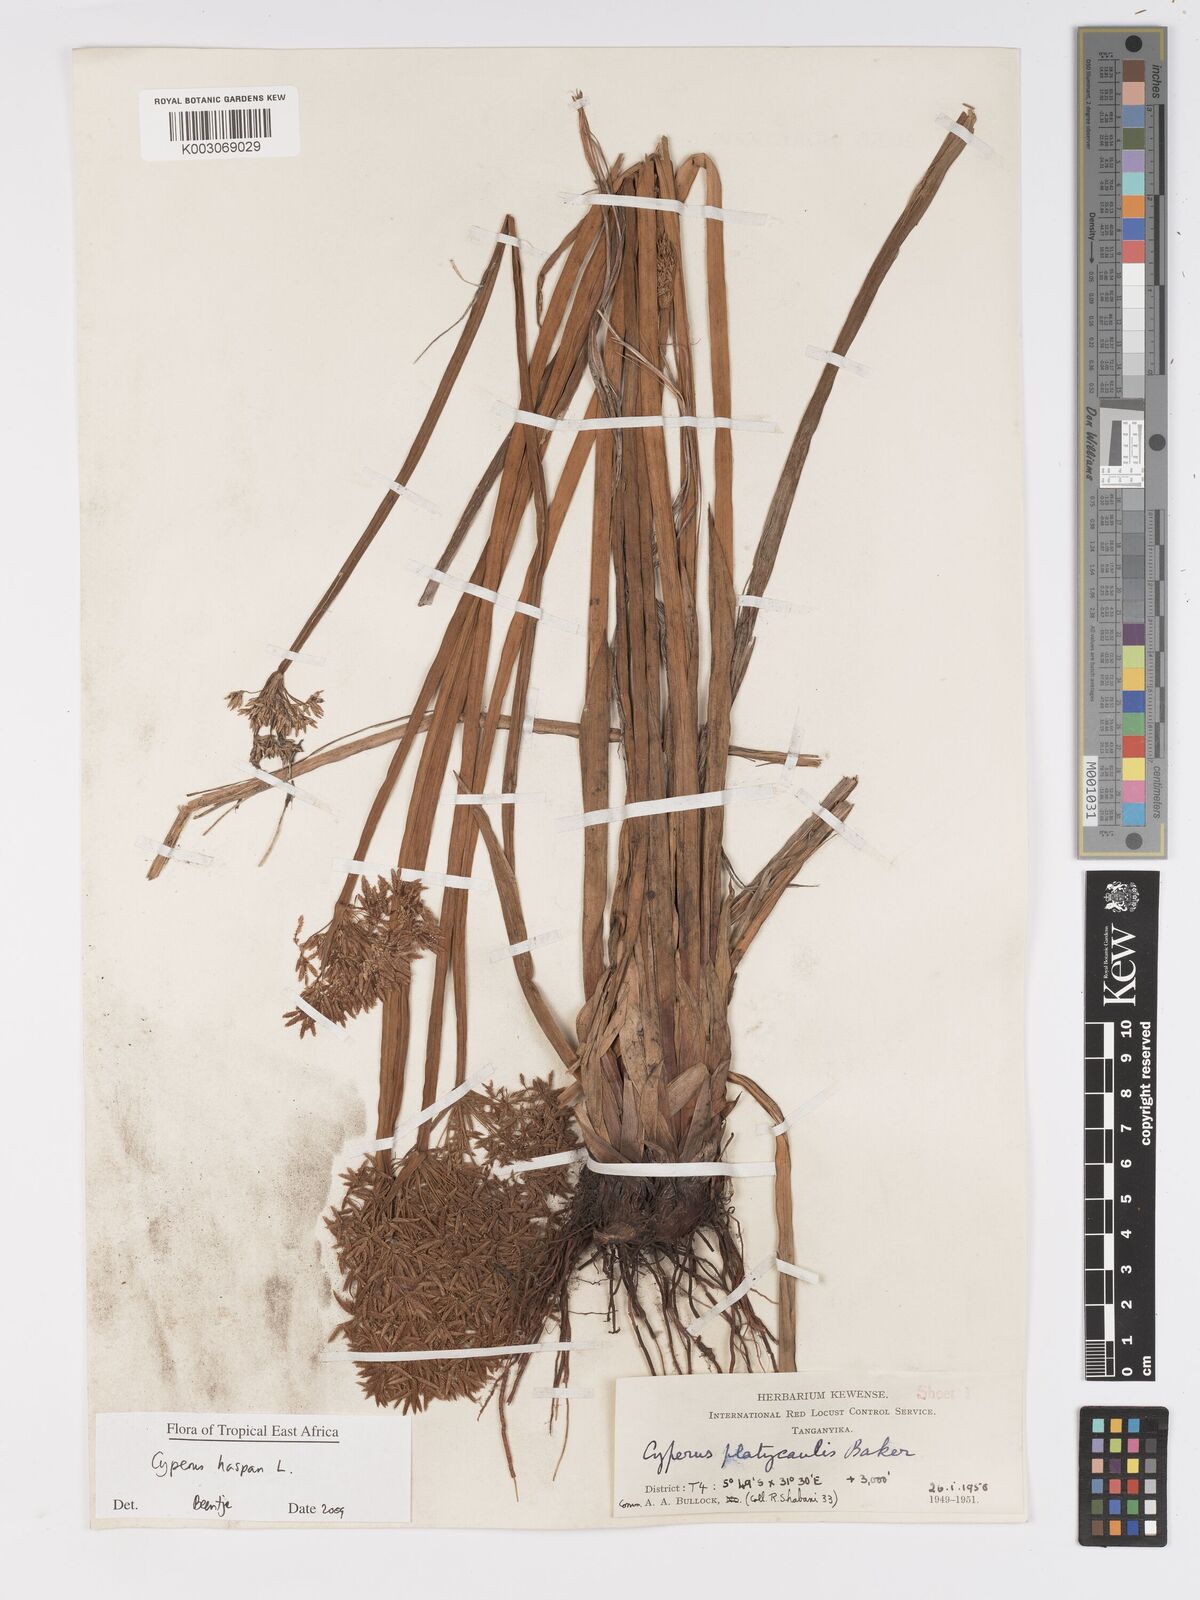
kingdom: Plantae
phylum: Tracheophyta
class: Liliopsida
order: Poales
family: Cyperaceae
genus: Cyperus
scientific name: Cyperus haspan
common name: Haspan flatsedge
